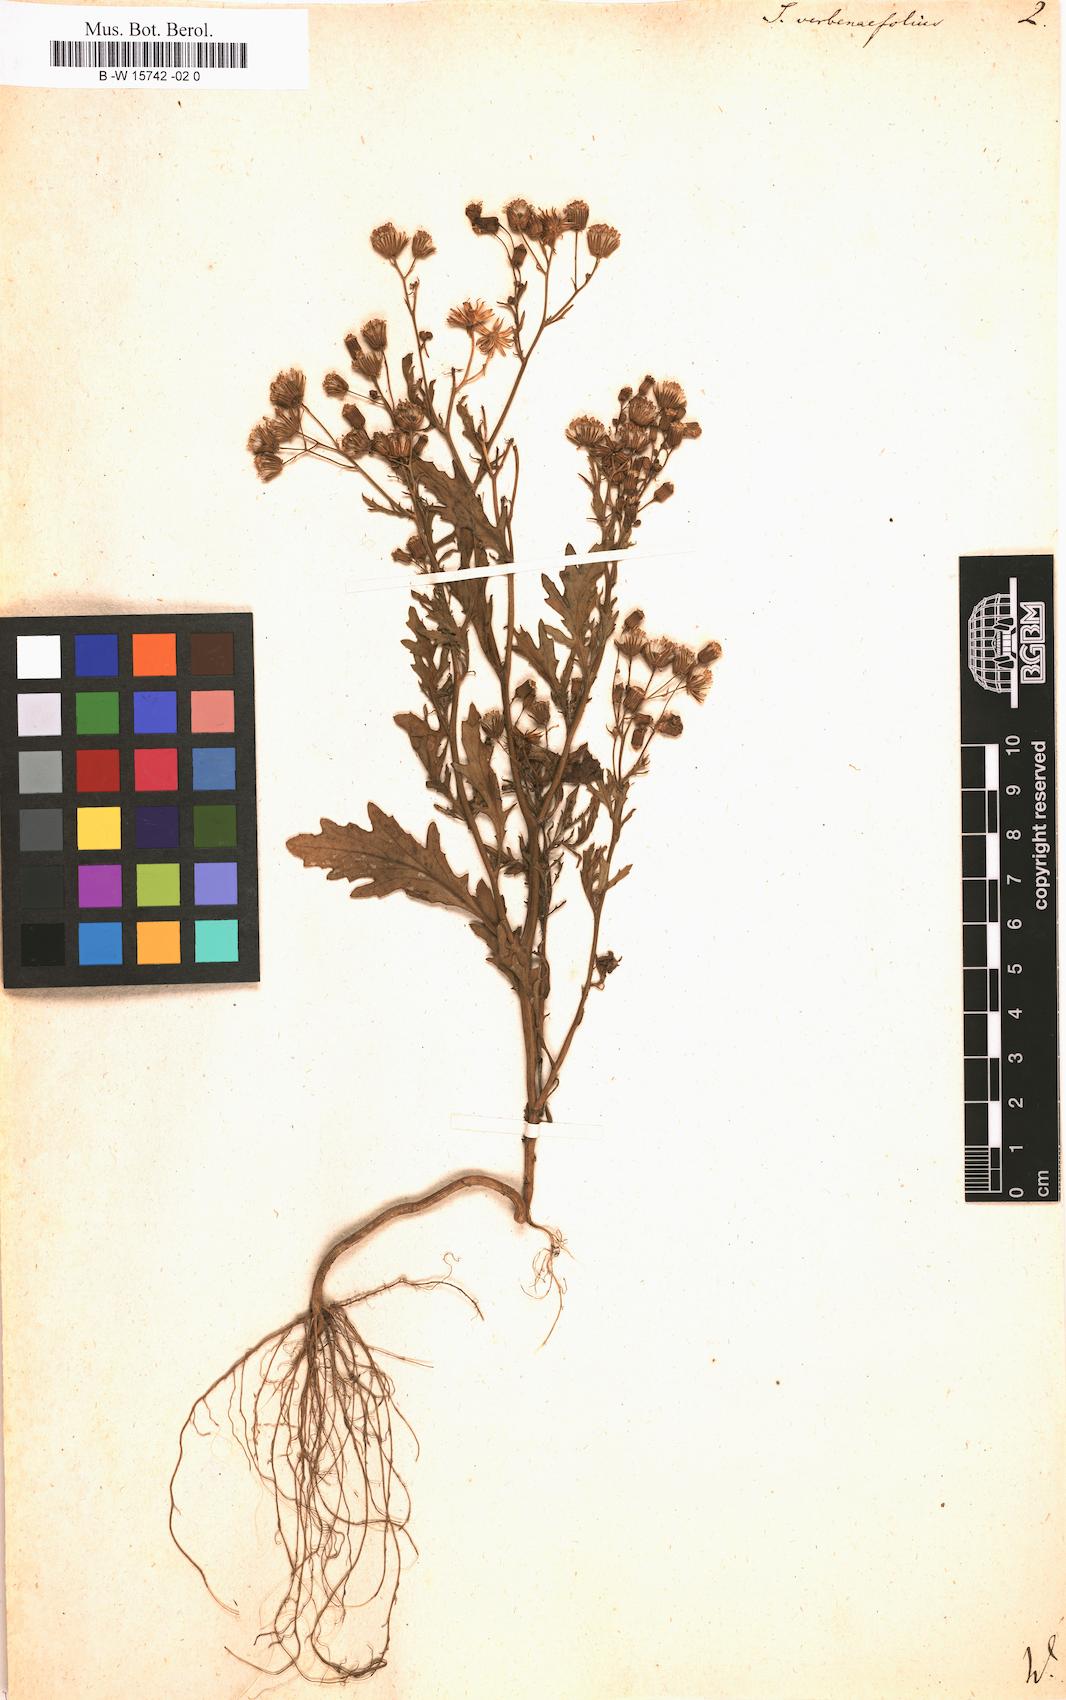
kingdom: Plantae
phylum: Tracheophyta
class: Magnoliopsida
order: Asterales
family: Asteraceae
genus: Senecio
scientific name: Senecio aegyptius
